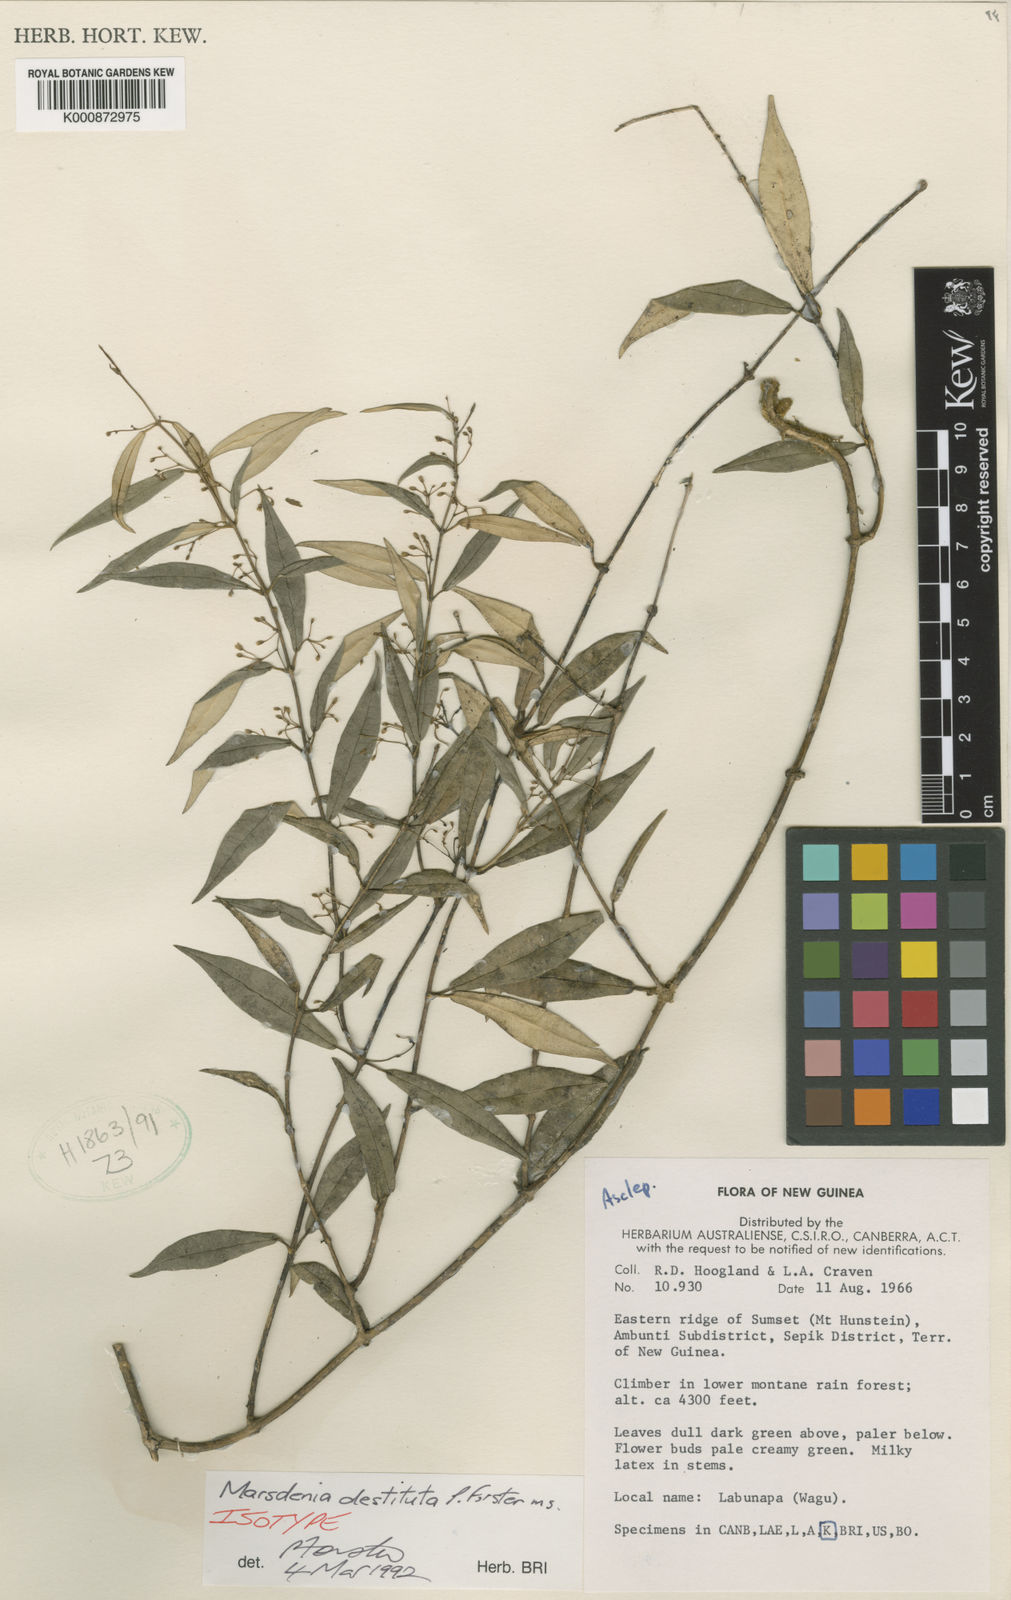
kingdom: Plantae
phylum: Tracheophyta
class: Magnoliopsida
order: Gentianales
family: Apocynaceae
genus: Leichhardtia
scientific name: Leichhardtia destituta
